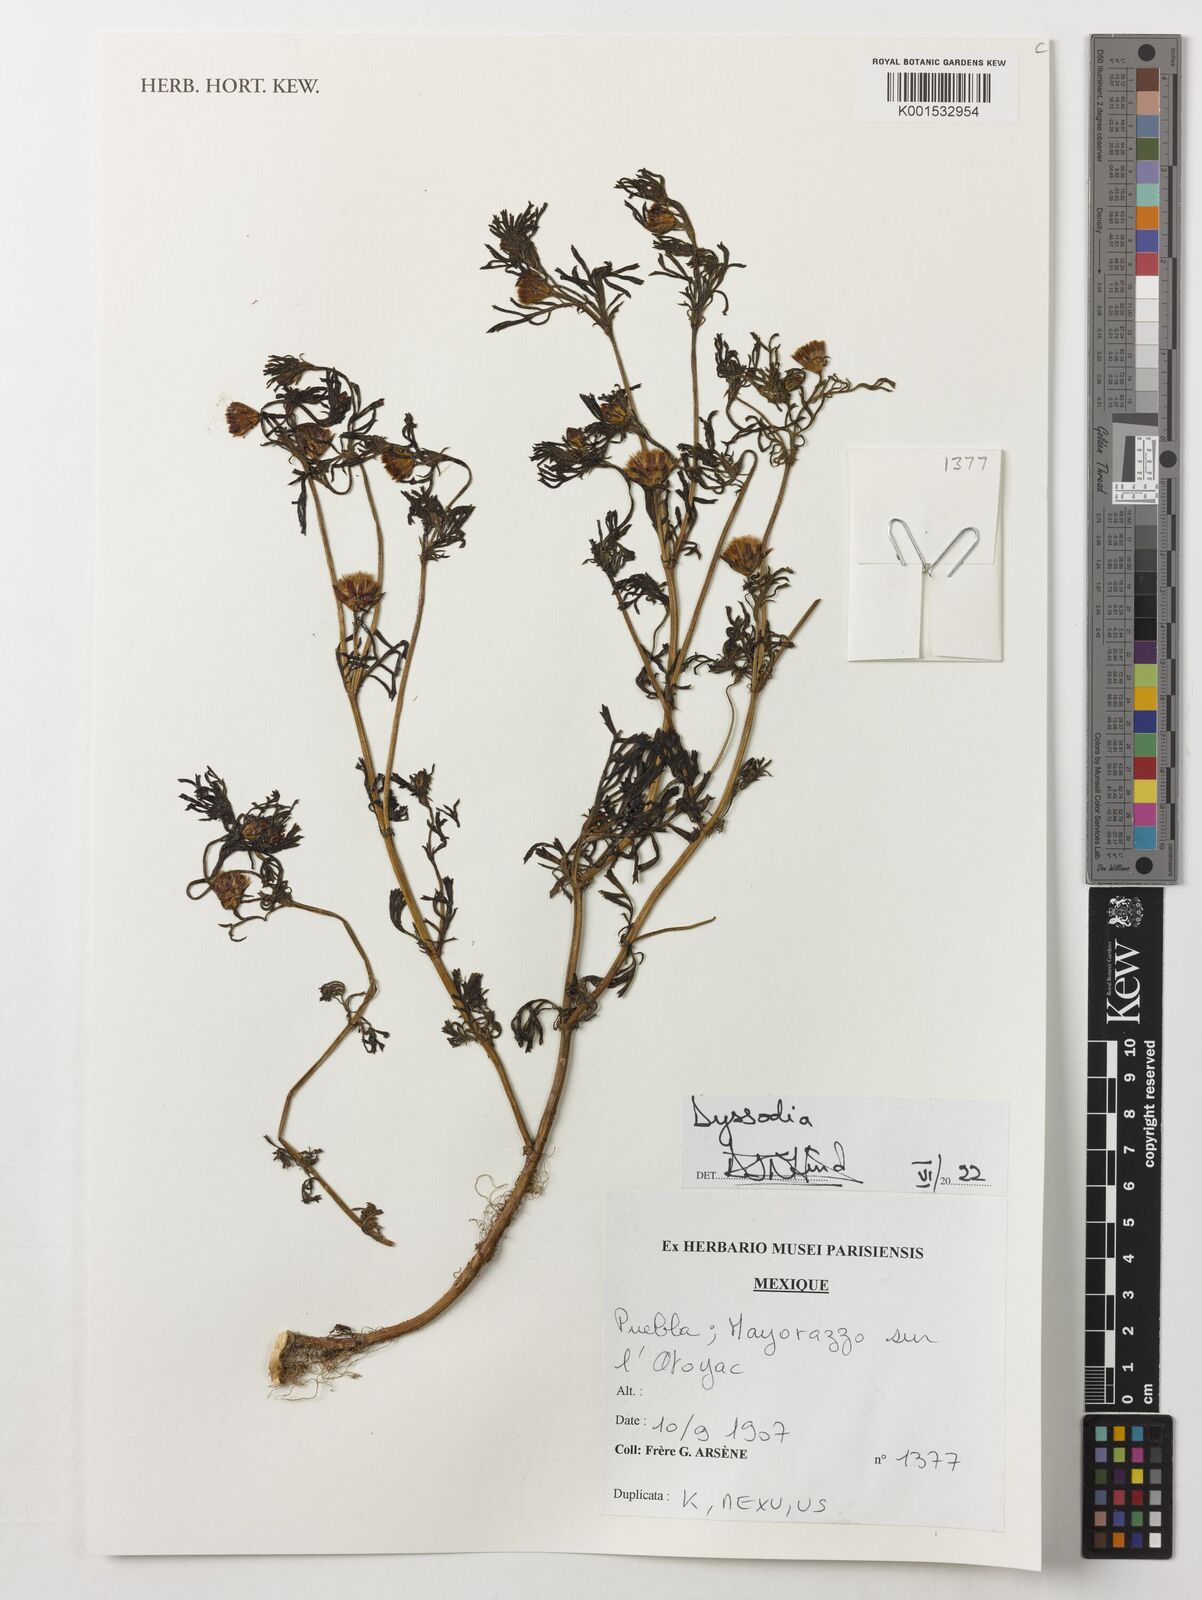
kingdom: Plantae
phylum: Tracheophyta
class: Magnoliopsida
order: Asterales
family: Asteraceae
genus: Dyssodia
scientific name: Dyssodia
